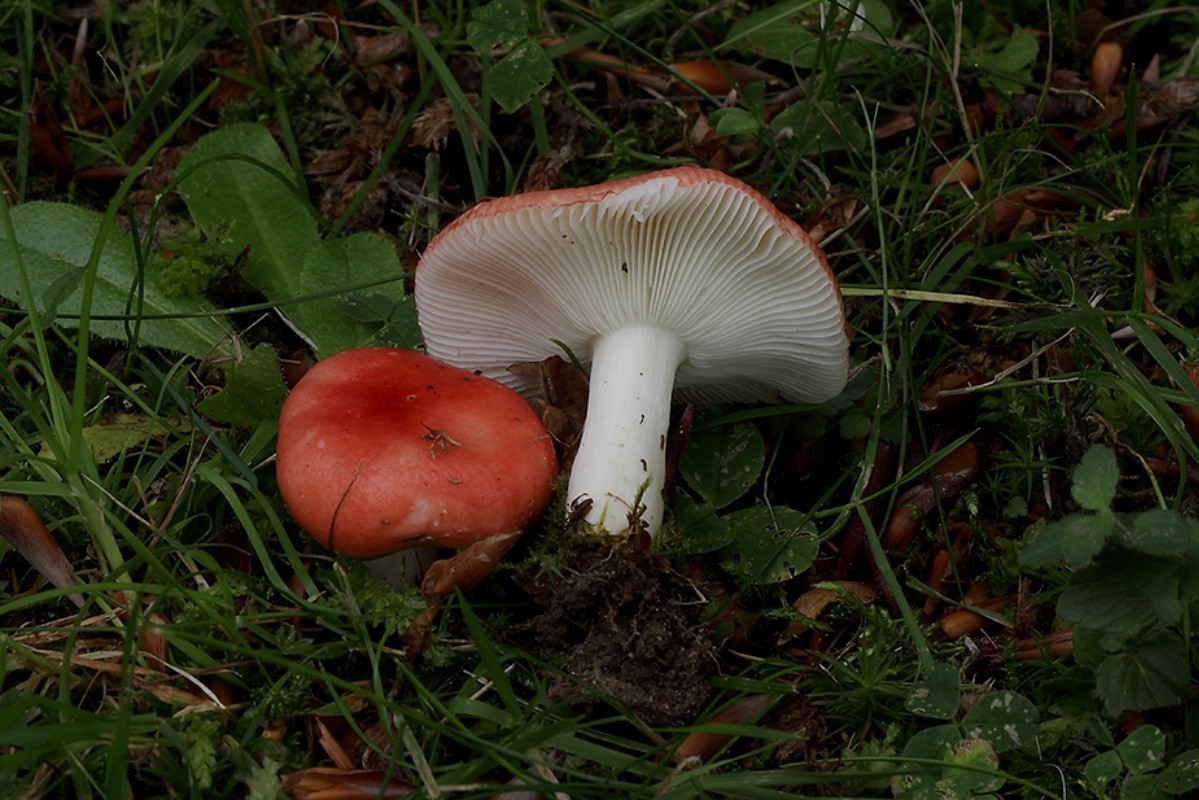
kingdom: Fungi
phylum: Basidiomycota
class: Agaricomycetes
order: Russulales
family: Russulaceae
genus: Russula
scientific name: Russula nobilis
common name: lille gift-skørhat
